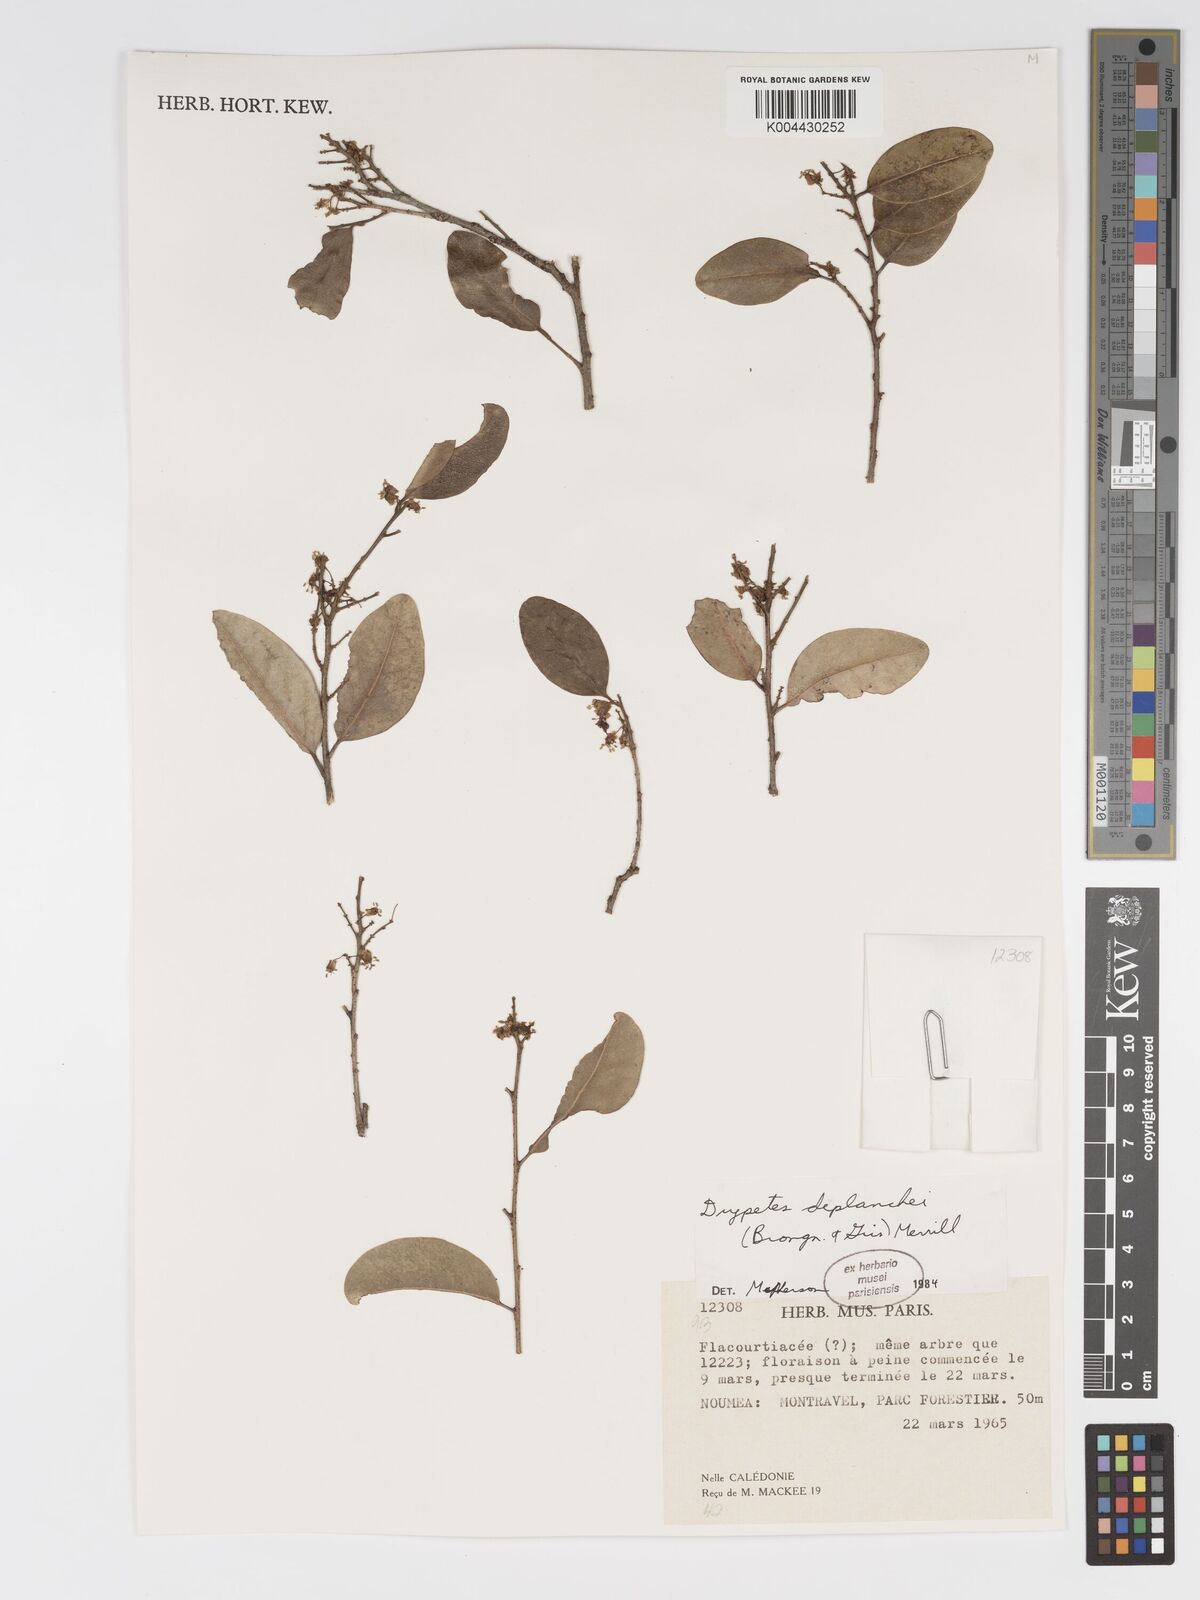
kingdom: Plantae
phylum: Tracheophyta
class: Magnoliopsida
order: Malpighiales
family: Putranjivaceae
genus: Drypetes
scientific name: Drypetes deplanchei
